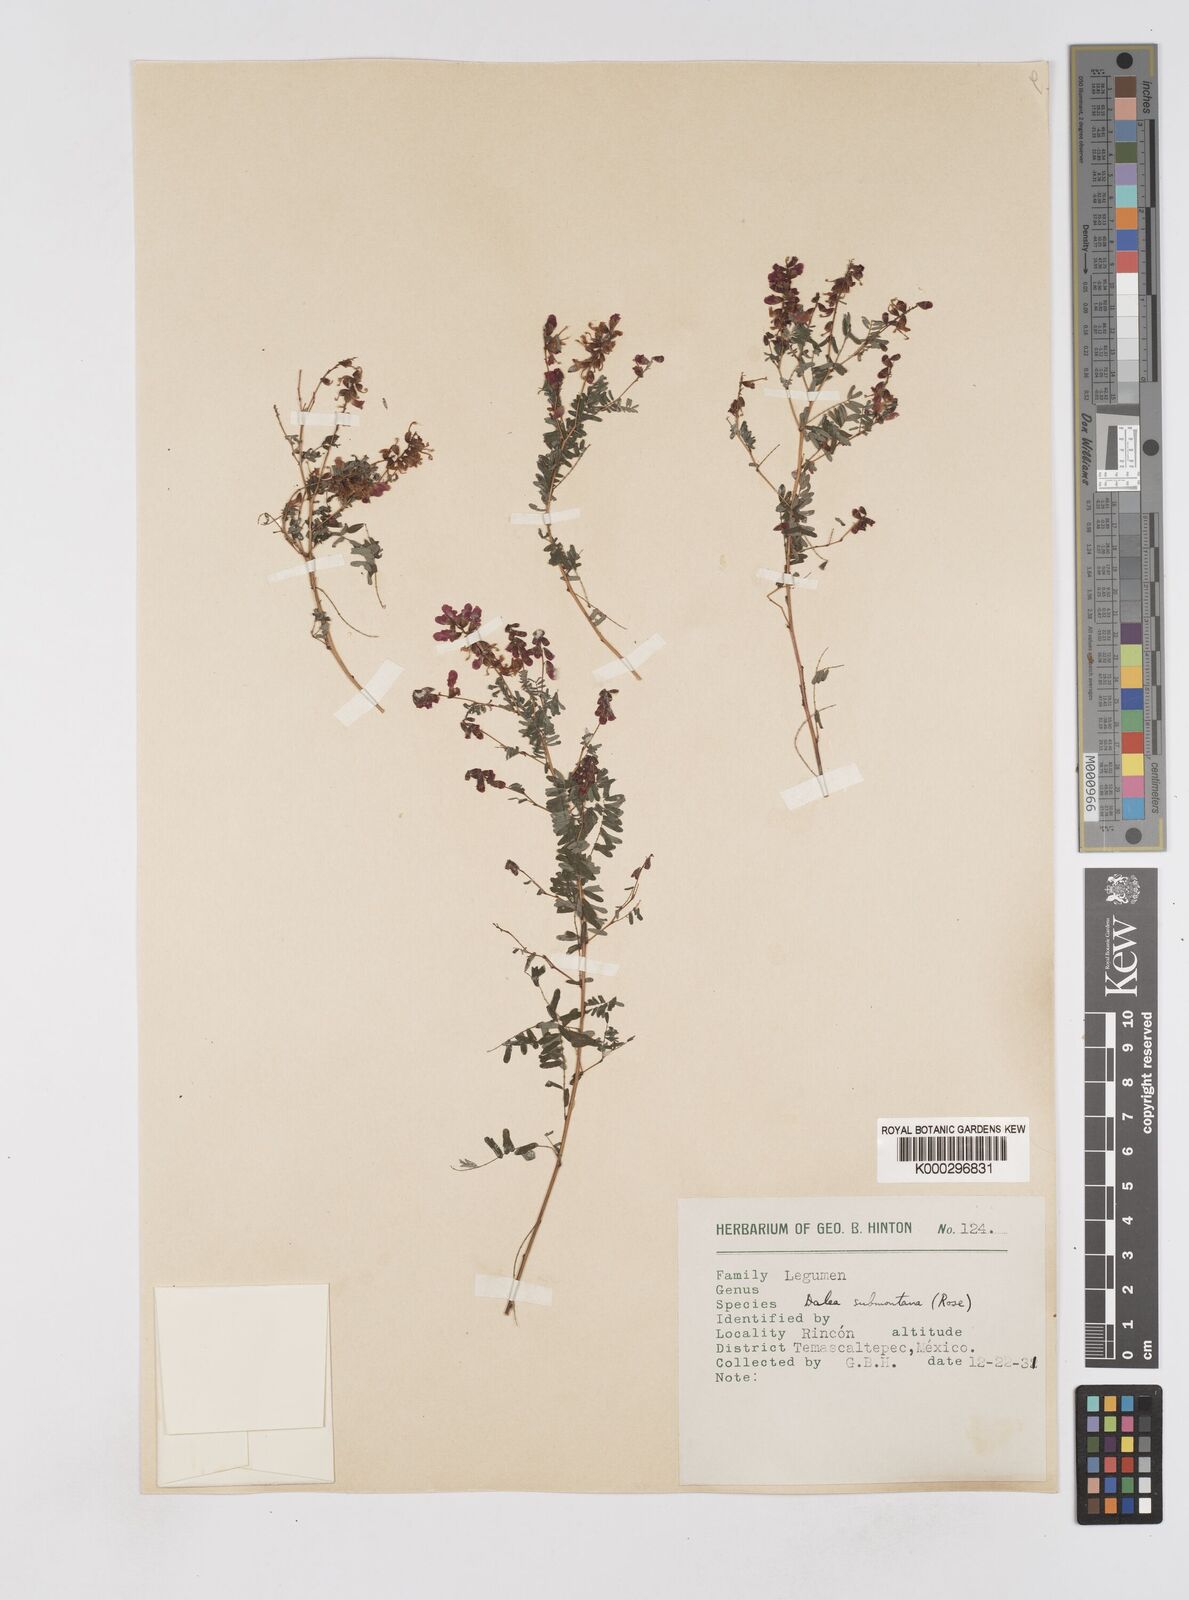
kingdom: Plantae
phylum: Tracheophyta
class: Magnoliopsida
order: Fabales
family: Fabaceae
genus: Marina
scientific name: Marina nutans
